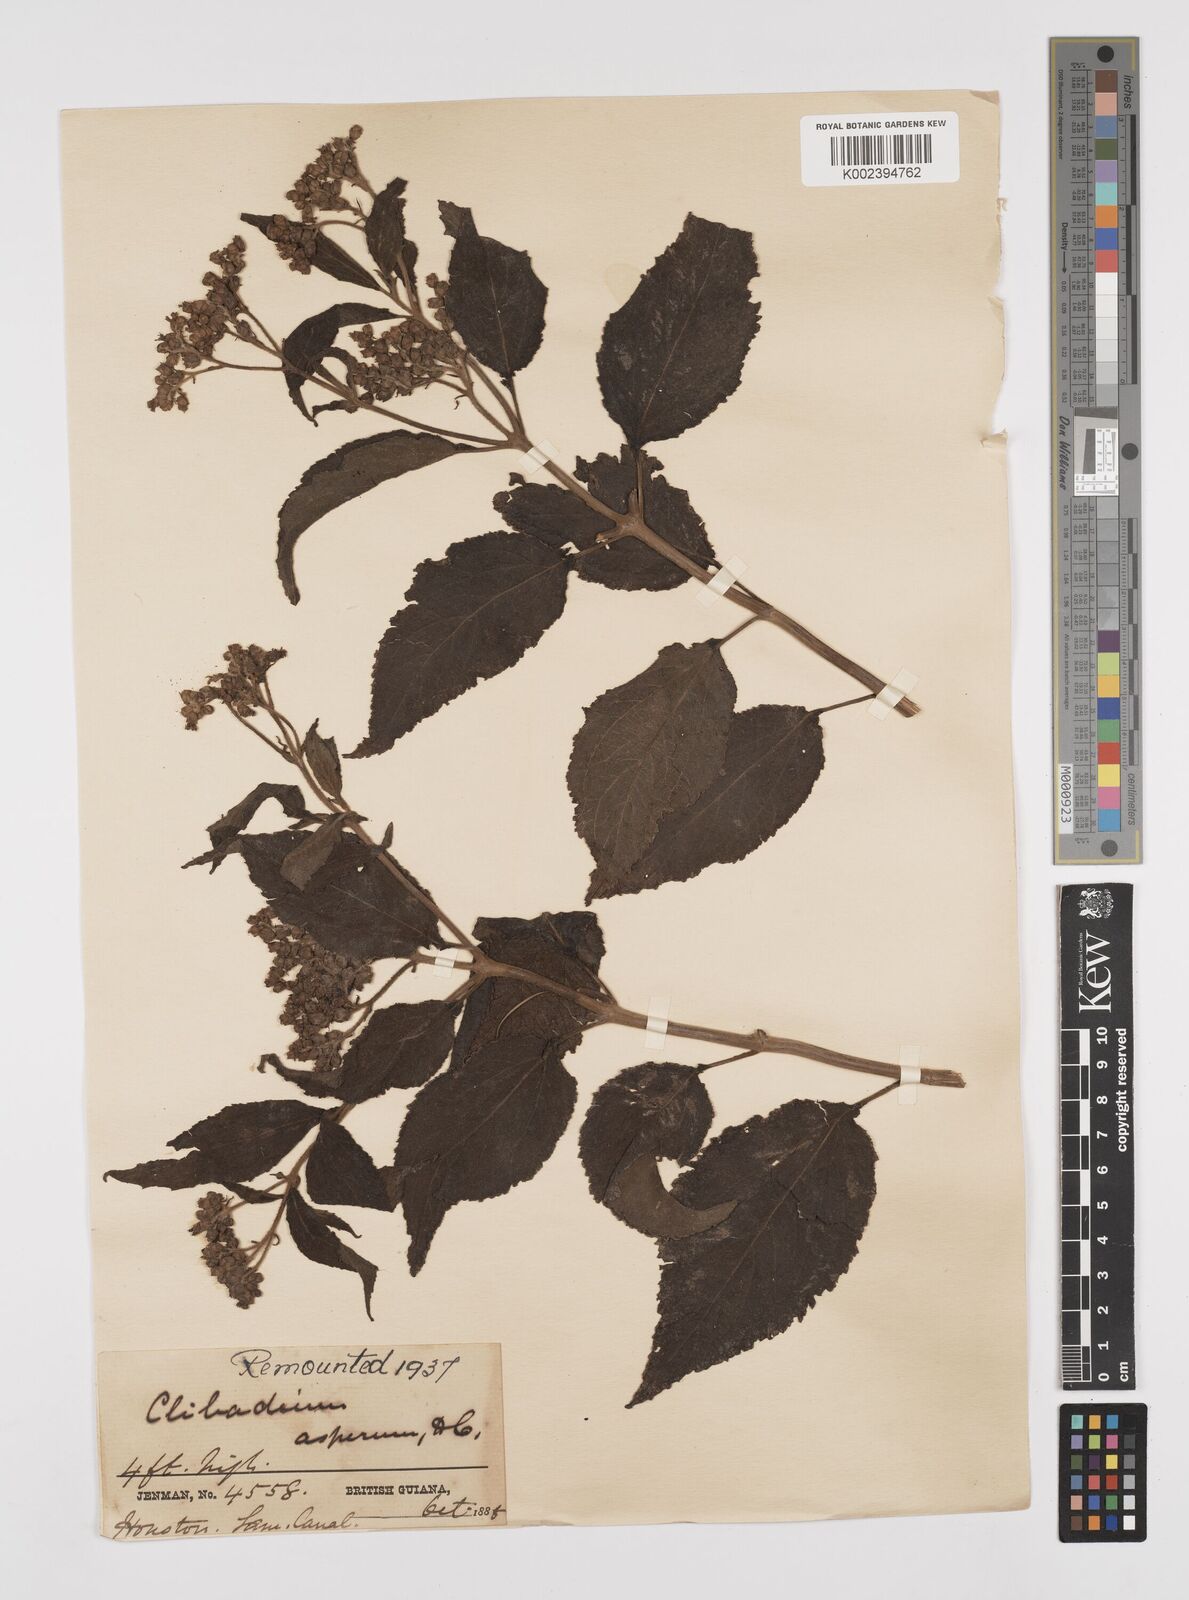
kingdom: Plantae
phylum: Tracheophyta
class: Magnoliopsida
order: Asterales
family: Asteraceae
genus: Clibadium
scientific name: Clibadium surinamense
